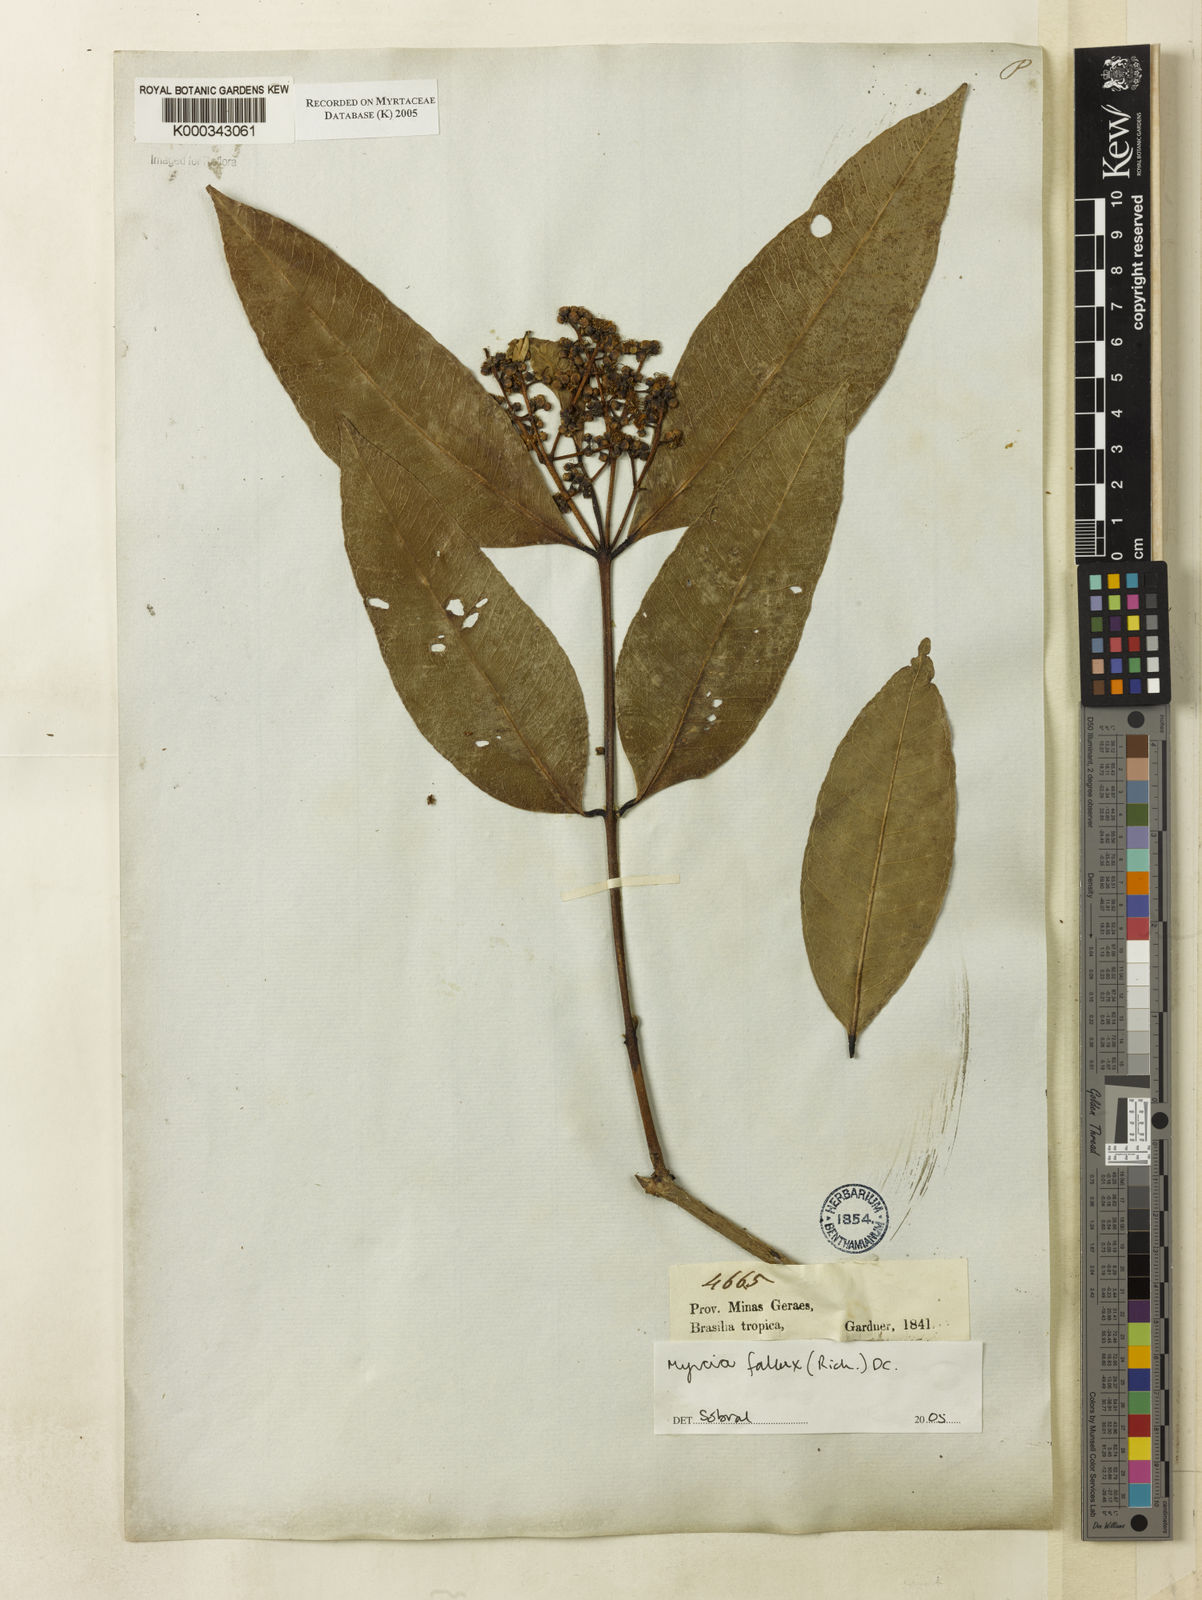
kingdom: Plantae
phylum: Tracheophyta
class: Magnoliopsida
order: Myrtales
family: Myrtaceae
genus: Myrcia
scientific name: Myrcia splendens
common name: Surinam cherry
